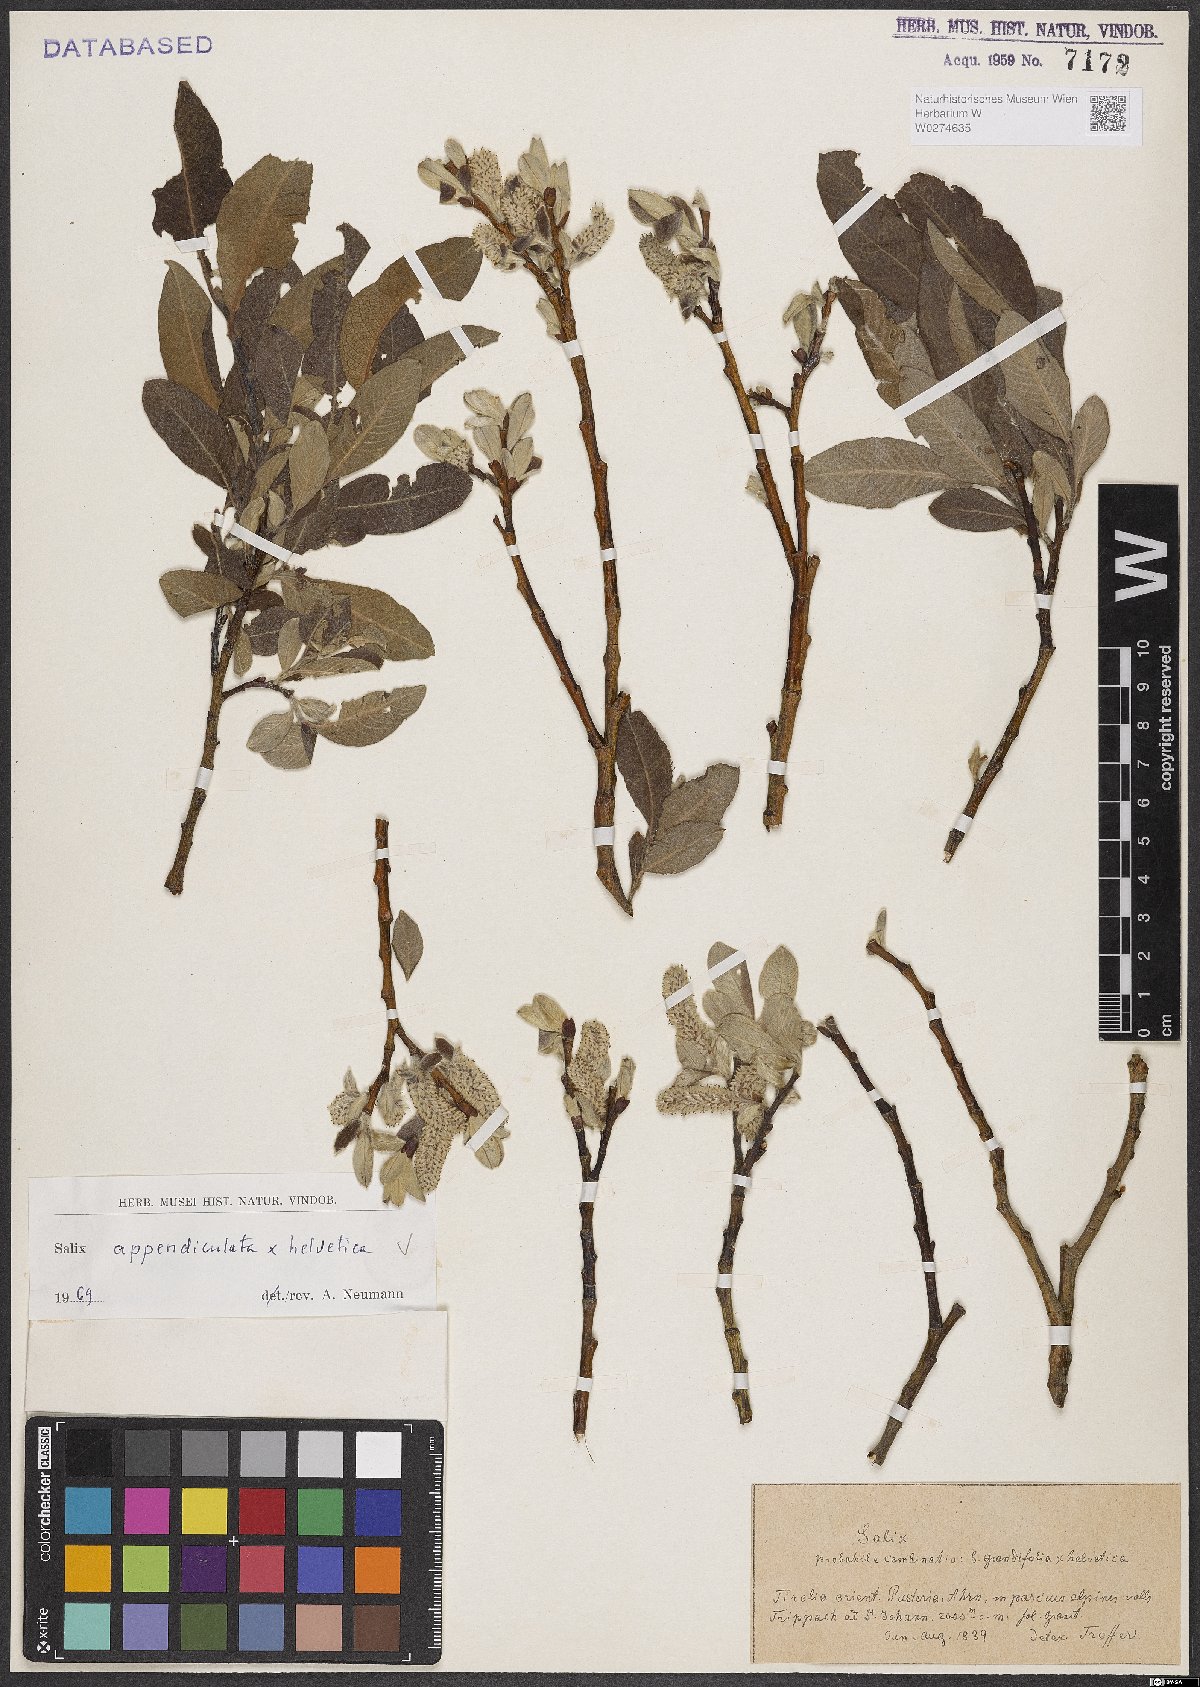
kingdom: Plantae
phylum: Tracheophyta
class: Magnoliopsida
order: Malpighiales
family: Salicaceae
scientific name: Salicaceae
